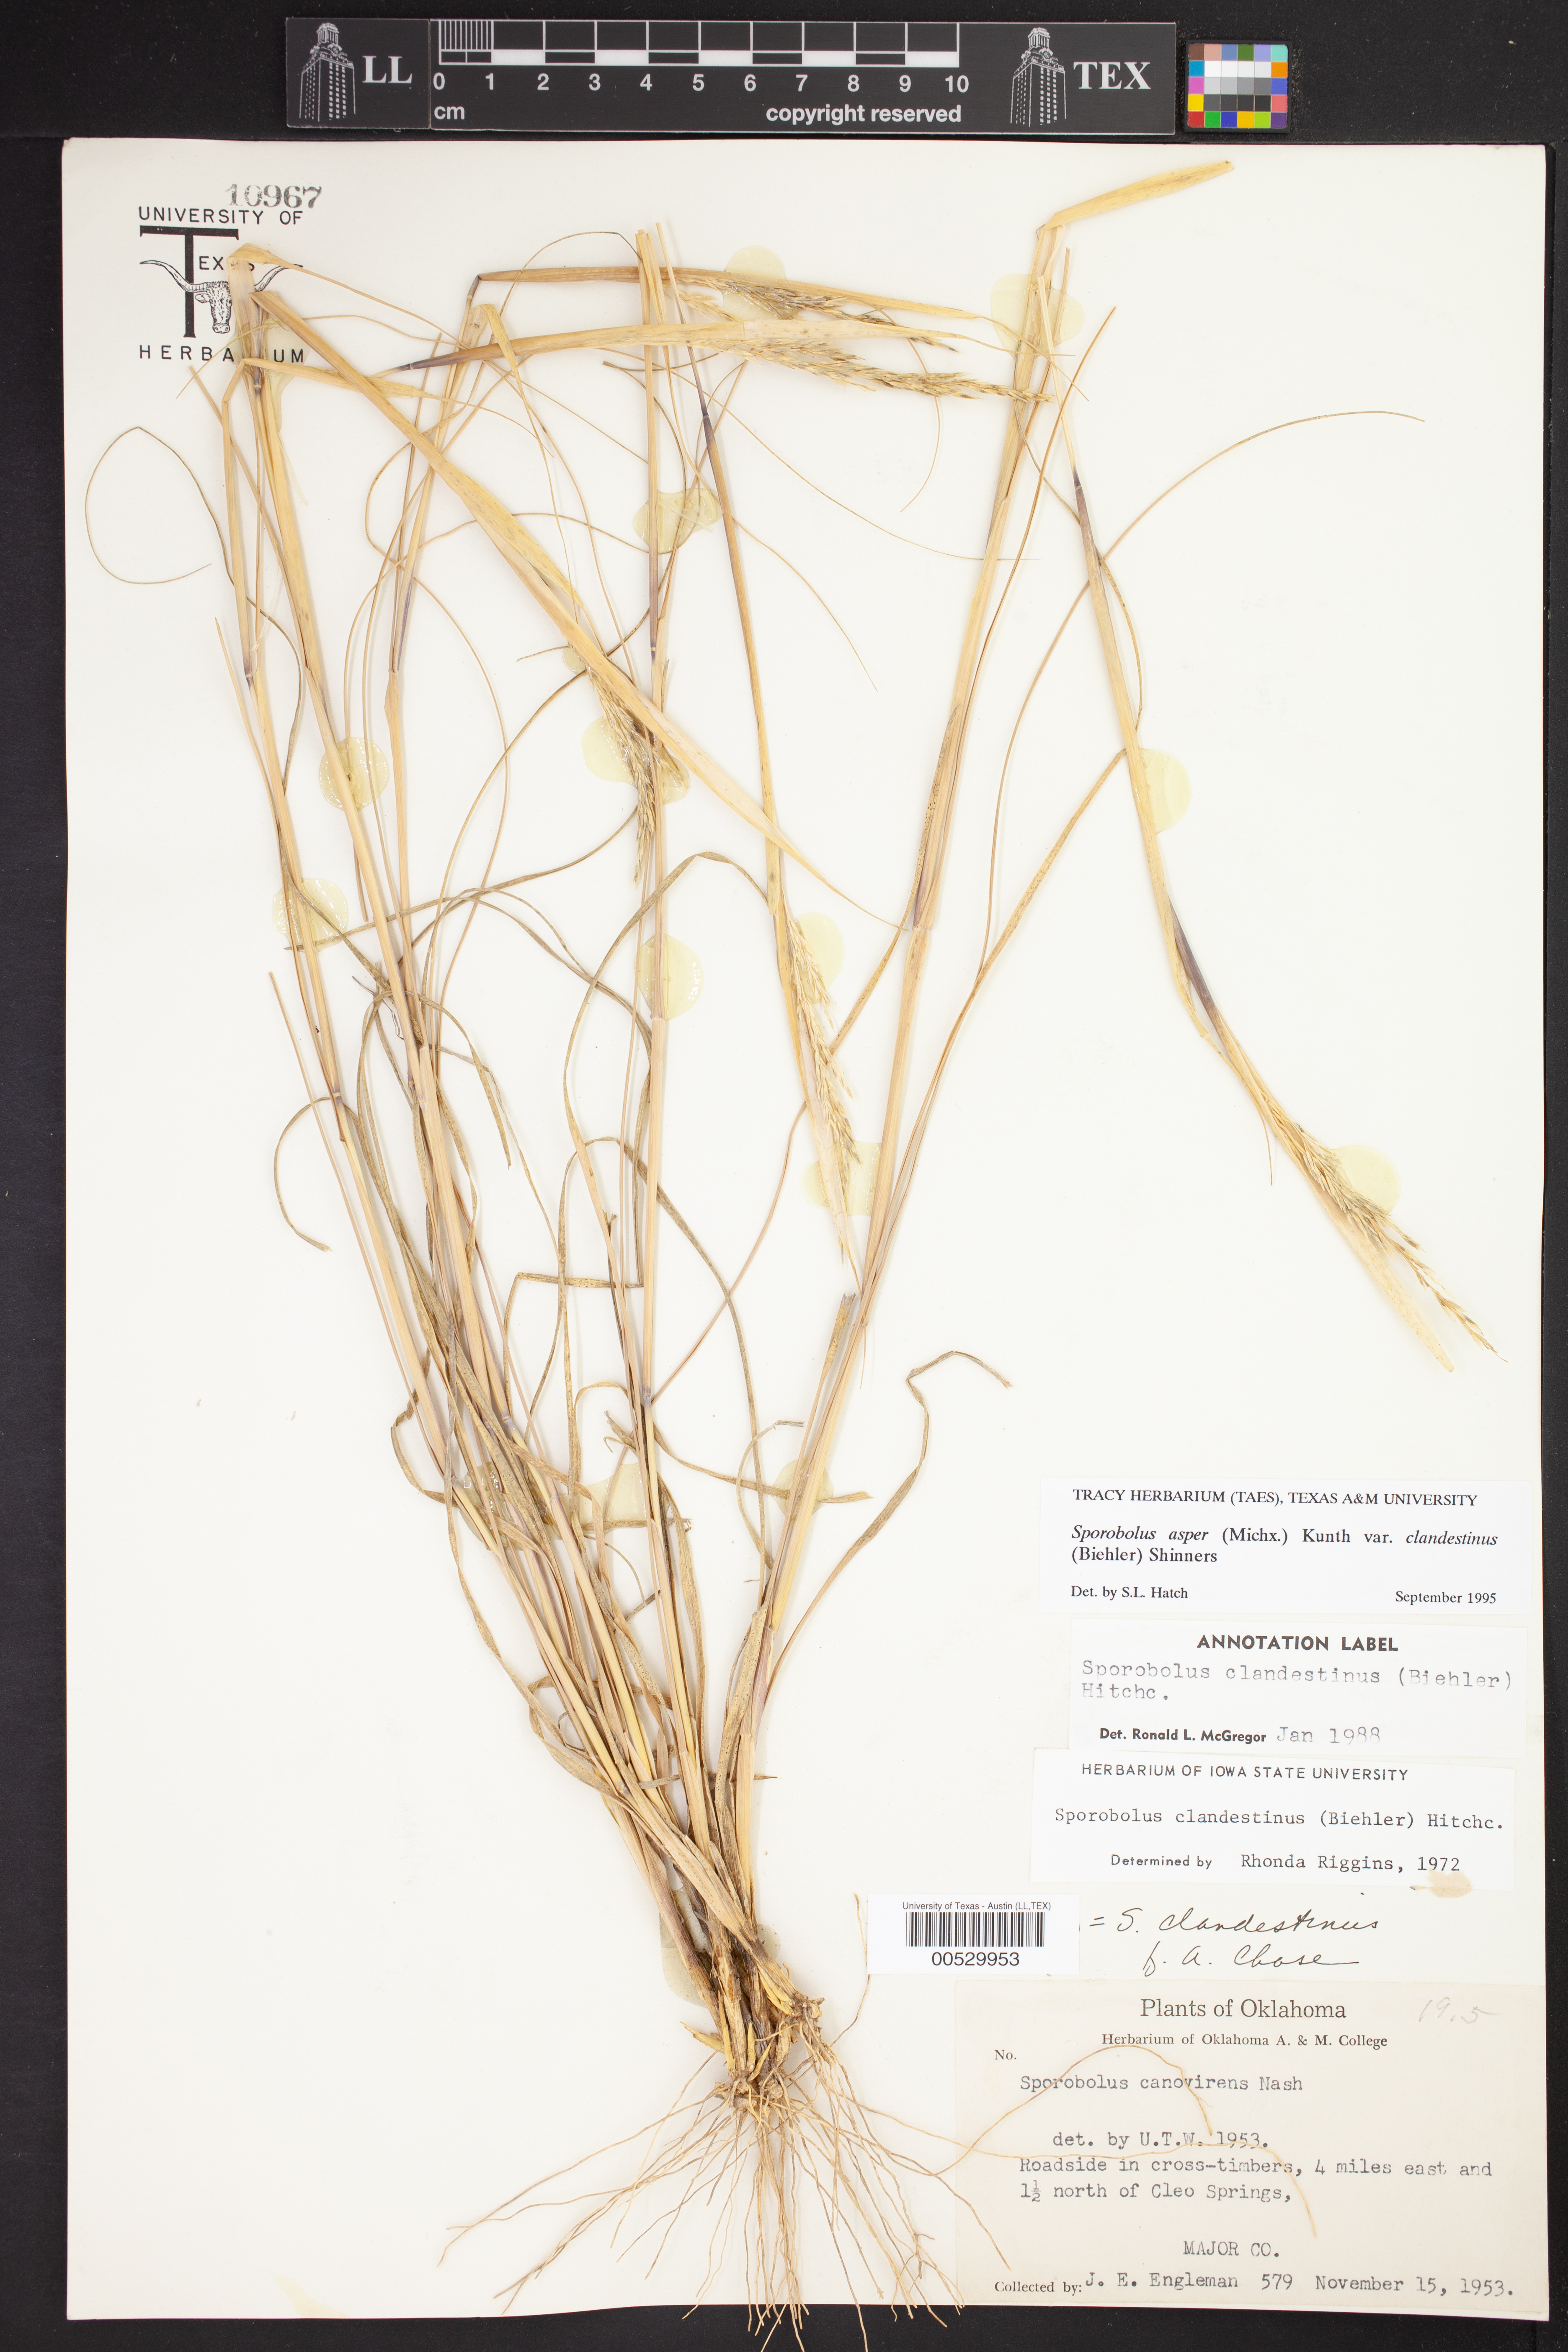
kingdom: Plantae
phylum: Tracheophyta
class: Liliopsida
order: Poales
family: Poaceae
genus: Sporobolus
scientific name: Sporobolus clandestinus
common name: Hidden dropseed
